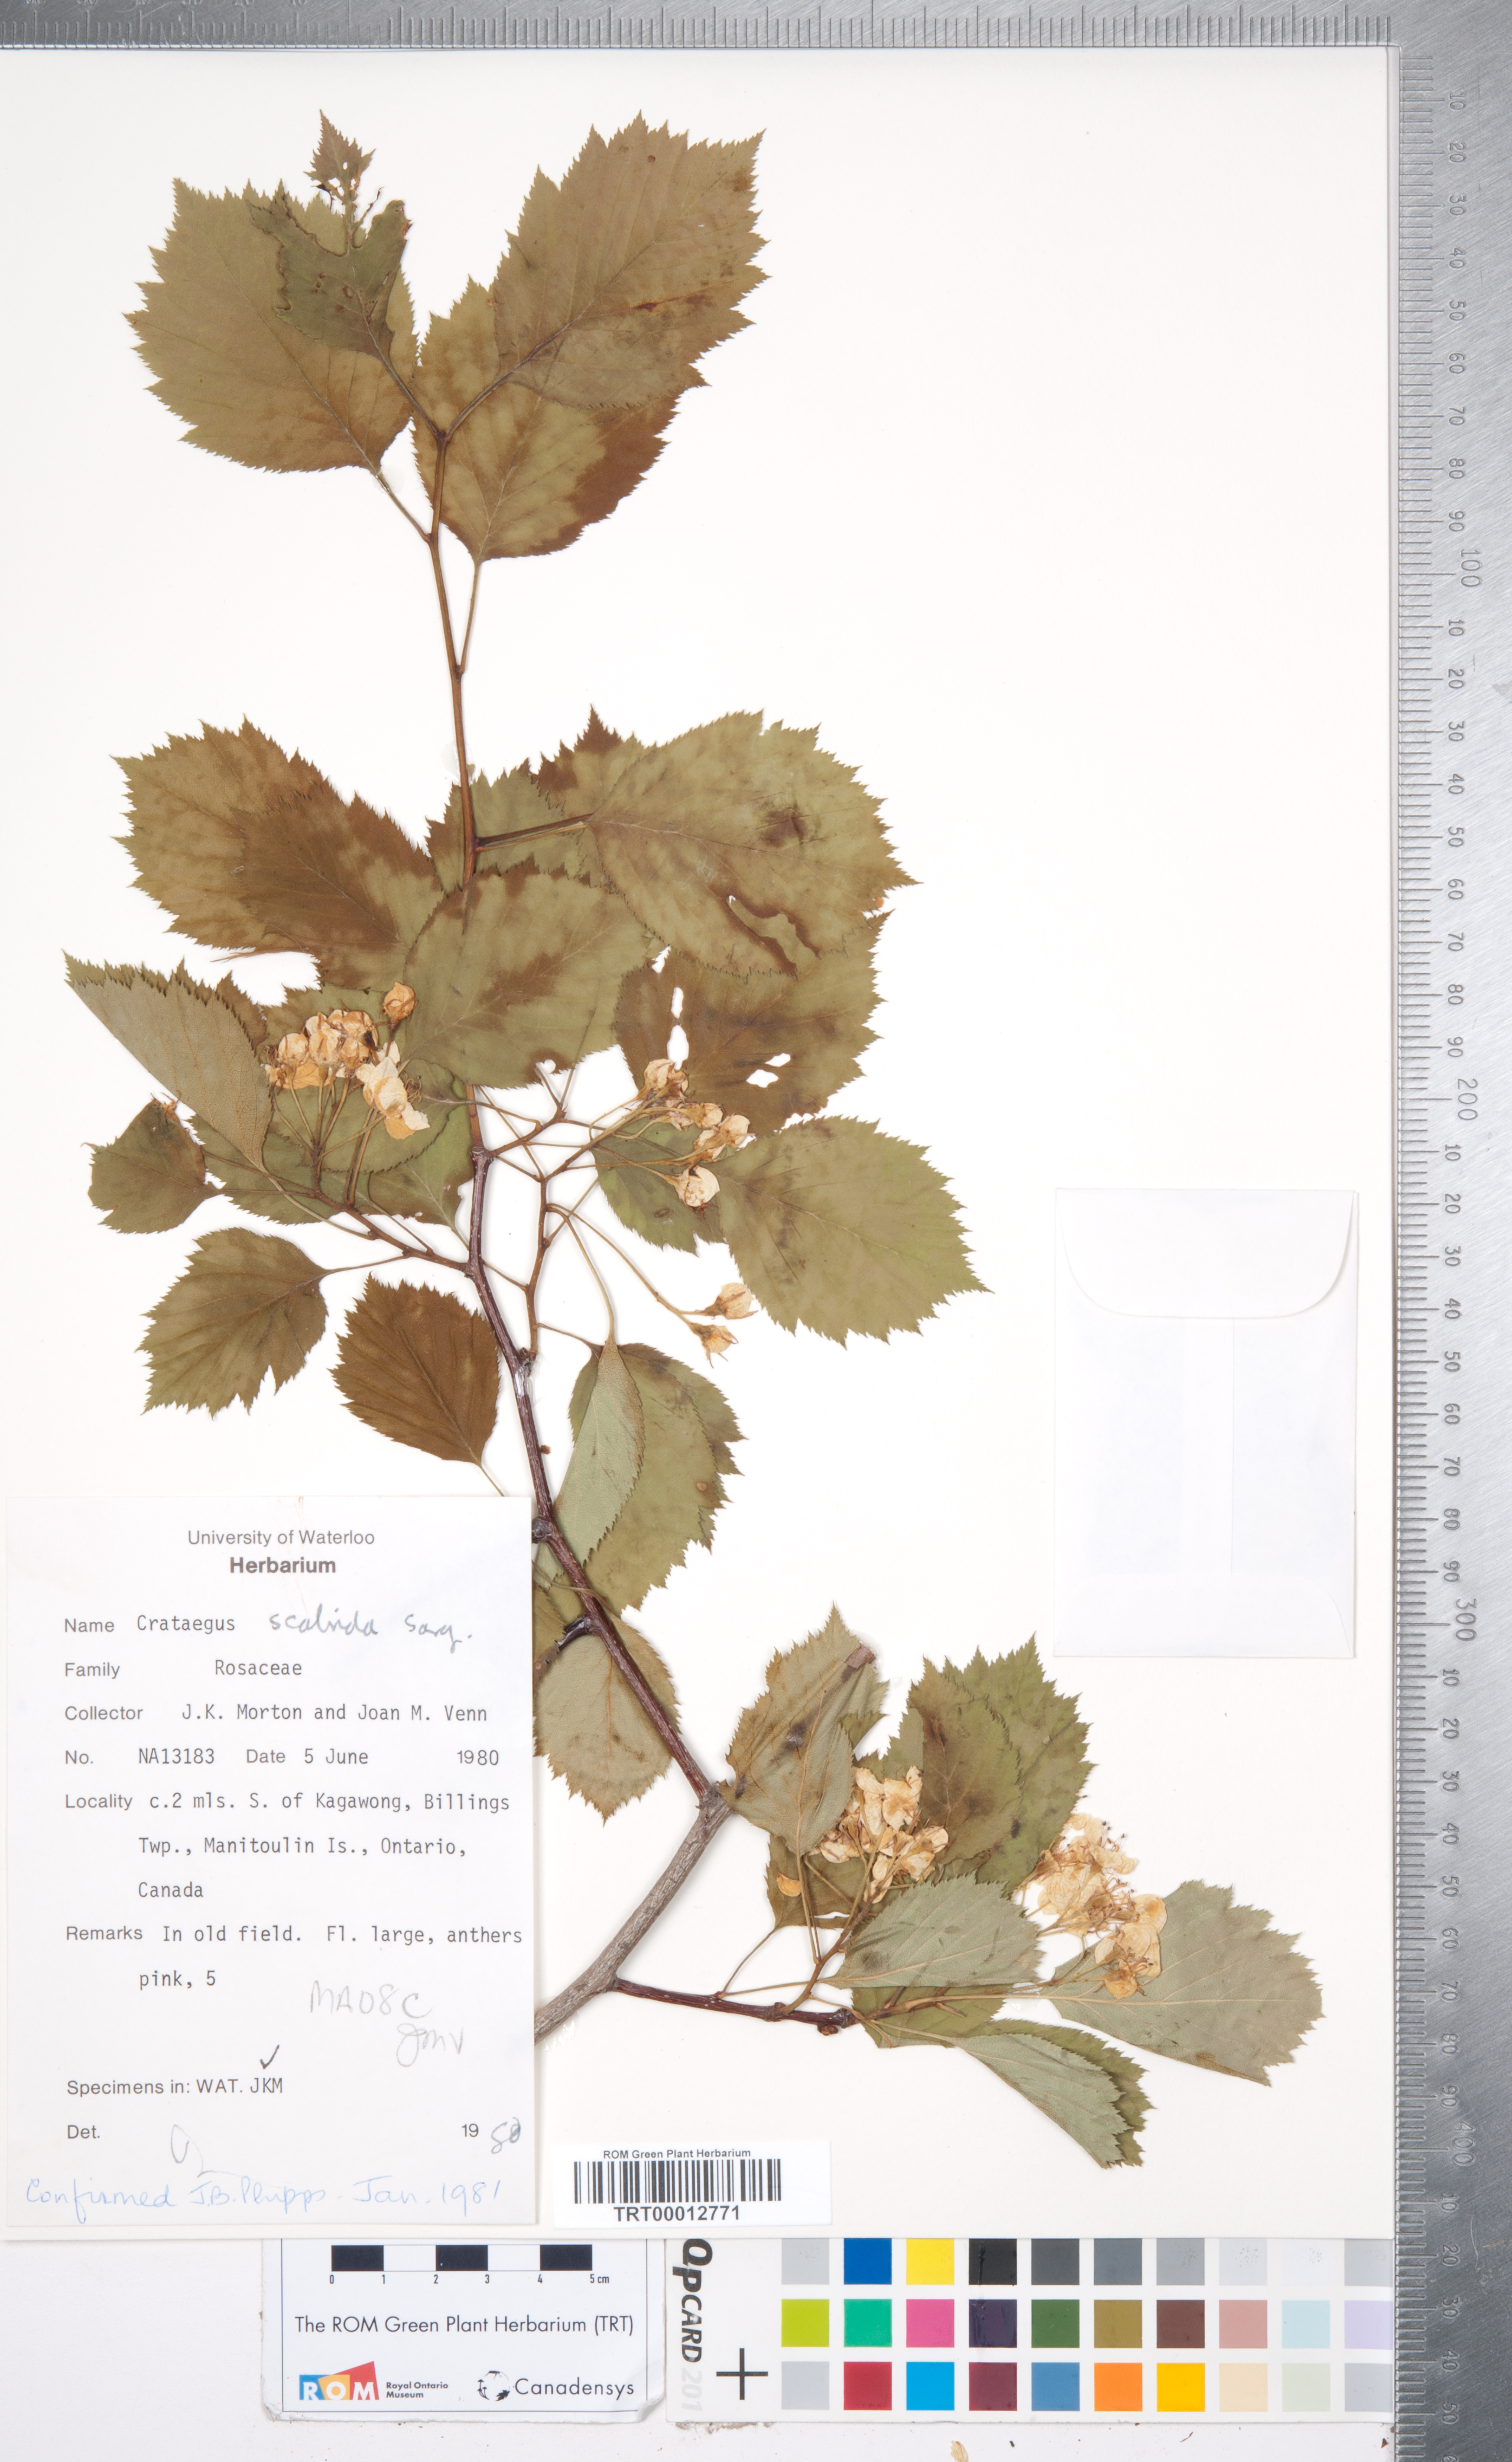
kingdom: Plantae
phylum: Tracheophyta
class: Magnoliopsida
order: Rosales
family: Rosaceae
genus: Crataegus
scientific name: Crataegus scabrida
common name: Rough hawthorn
